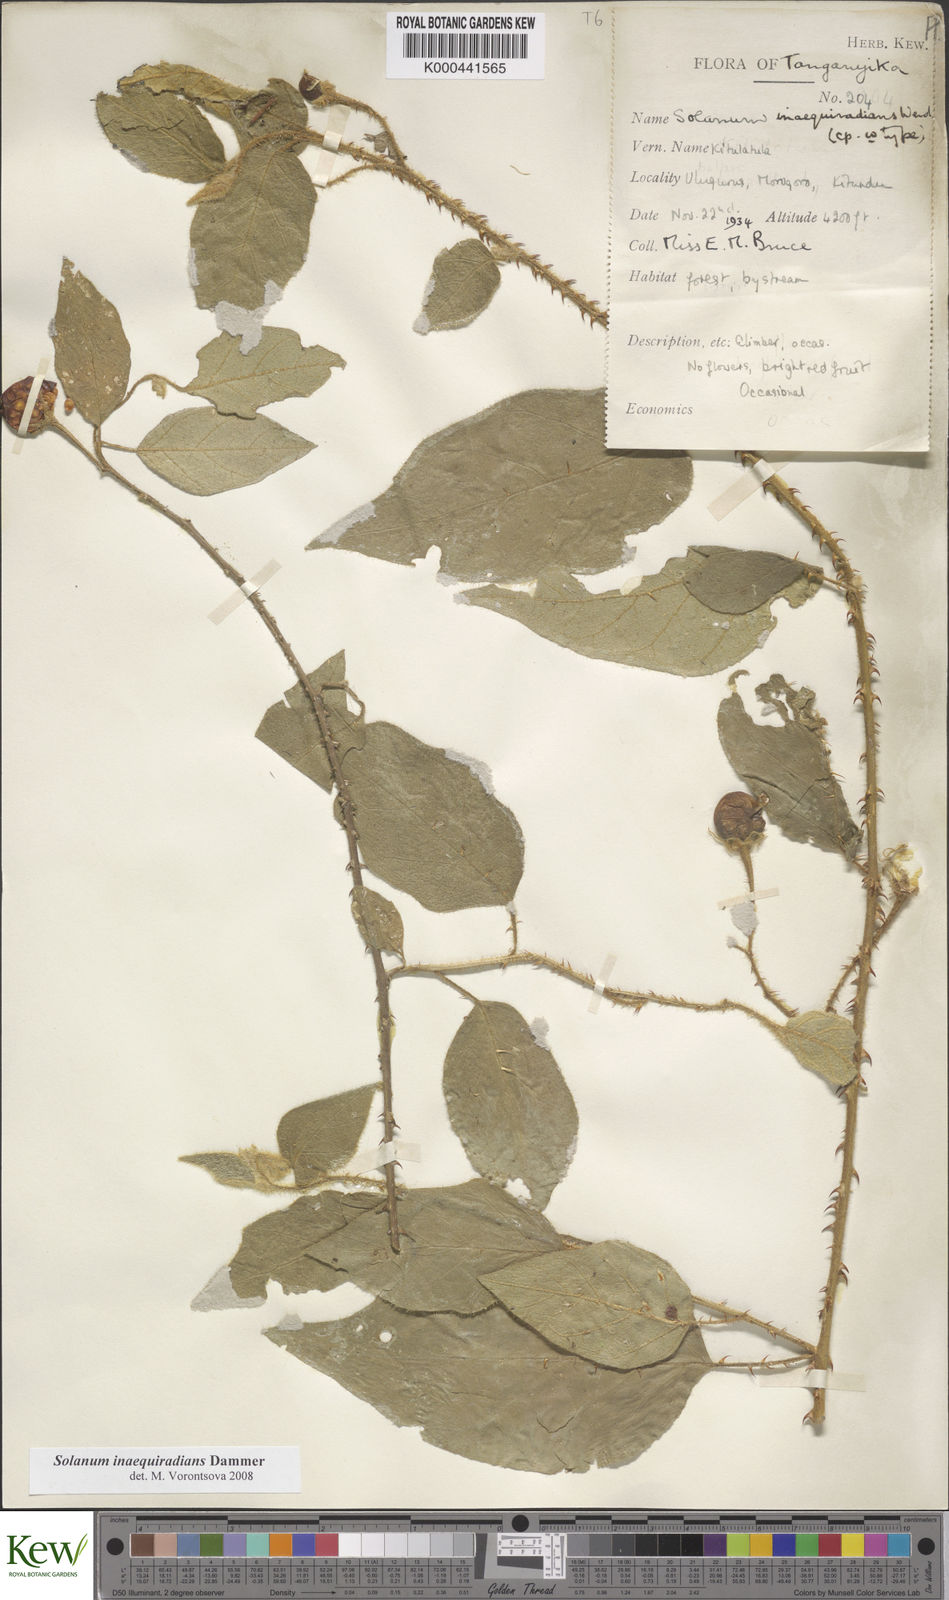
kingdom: Plantae
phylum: Tracheophyta
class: Magnoliopsida
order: Solanales
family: Solanaceae
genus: Solanum
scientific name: Solanum inaequiradians
